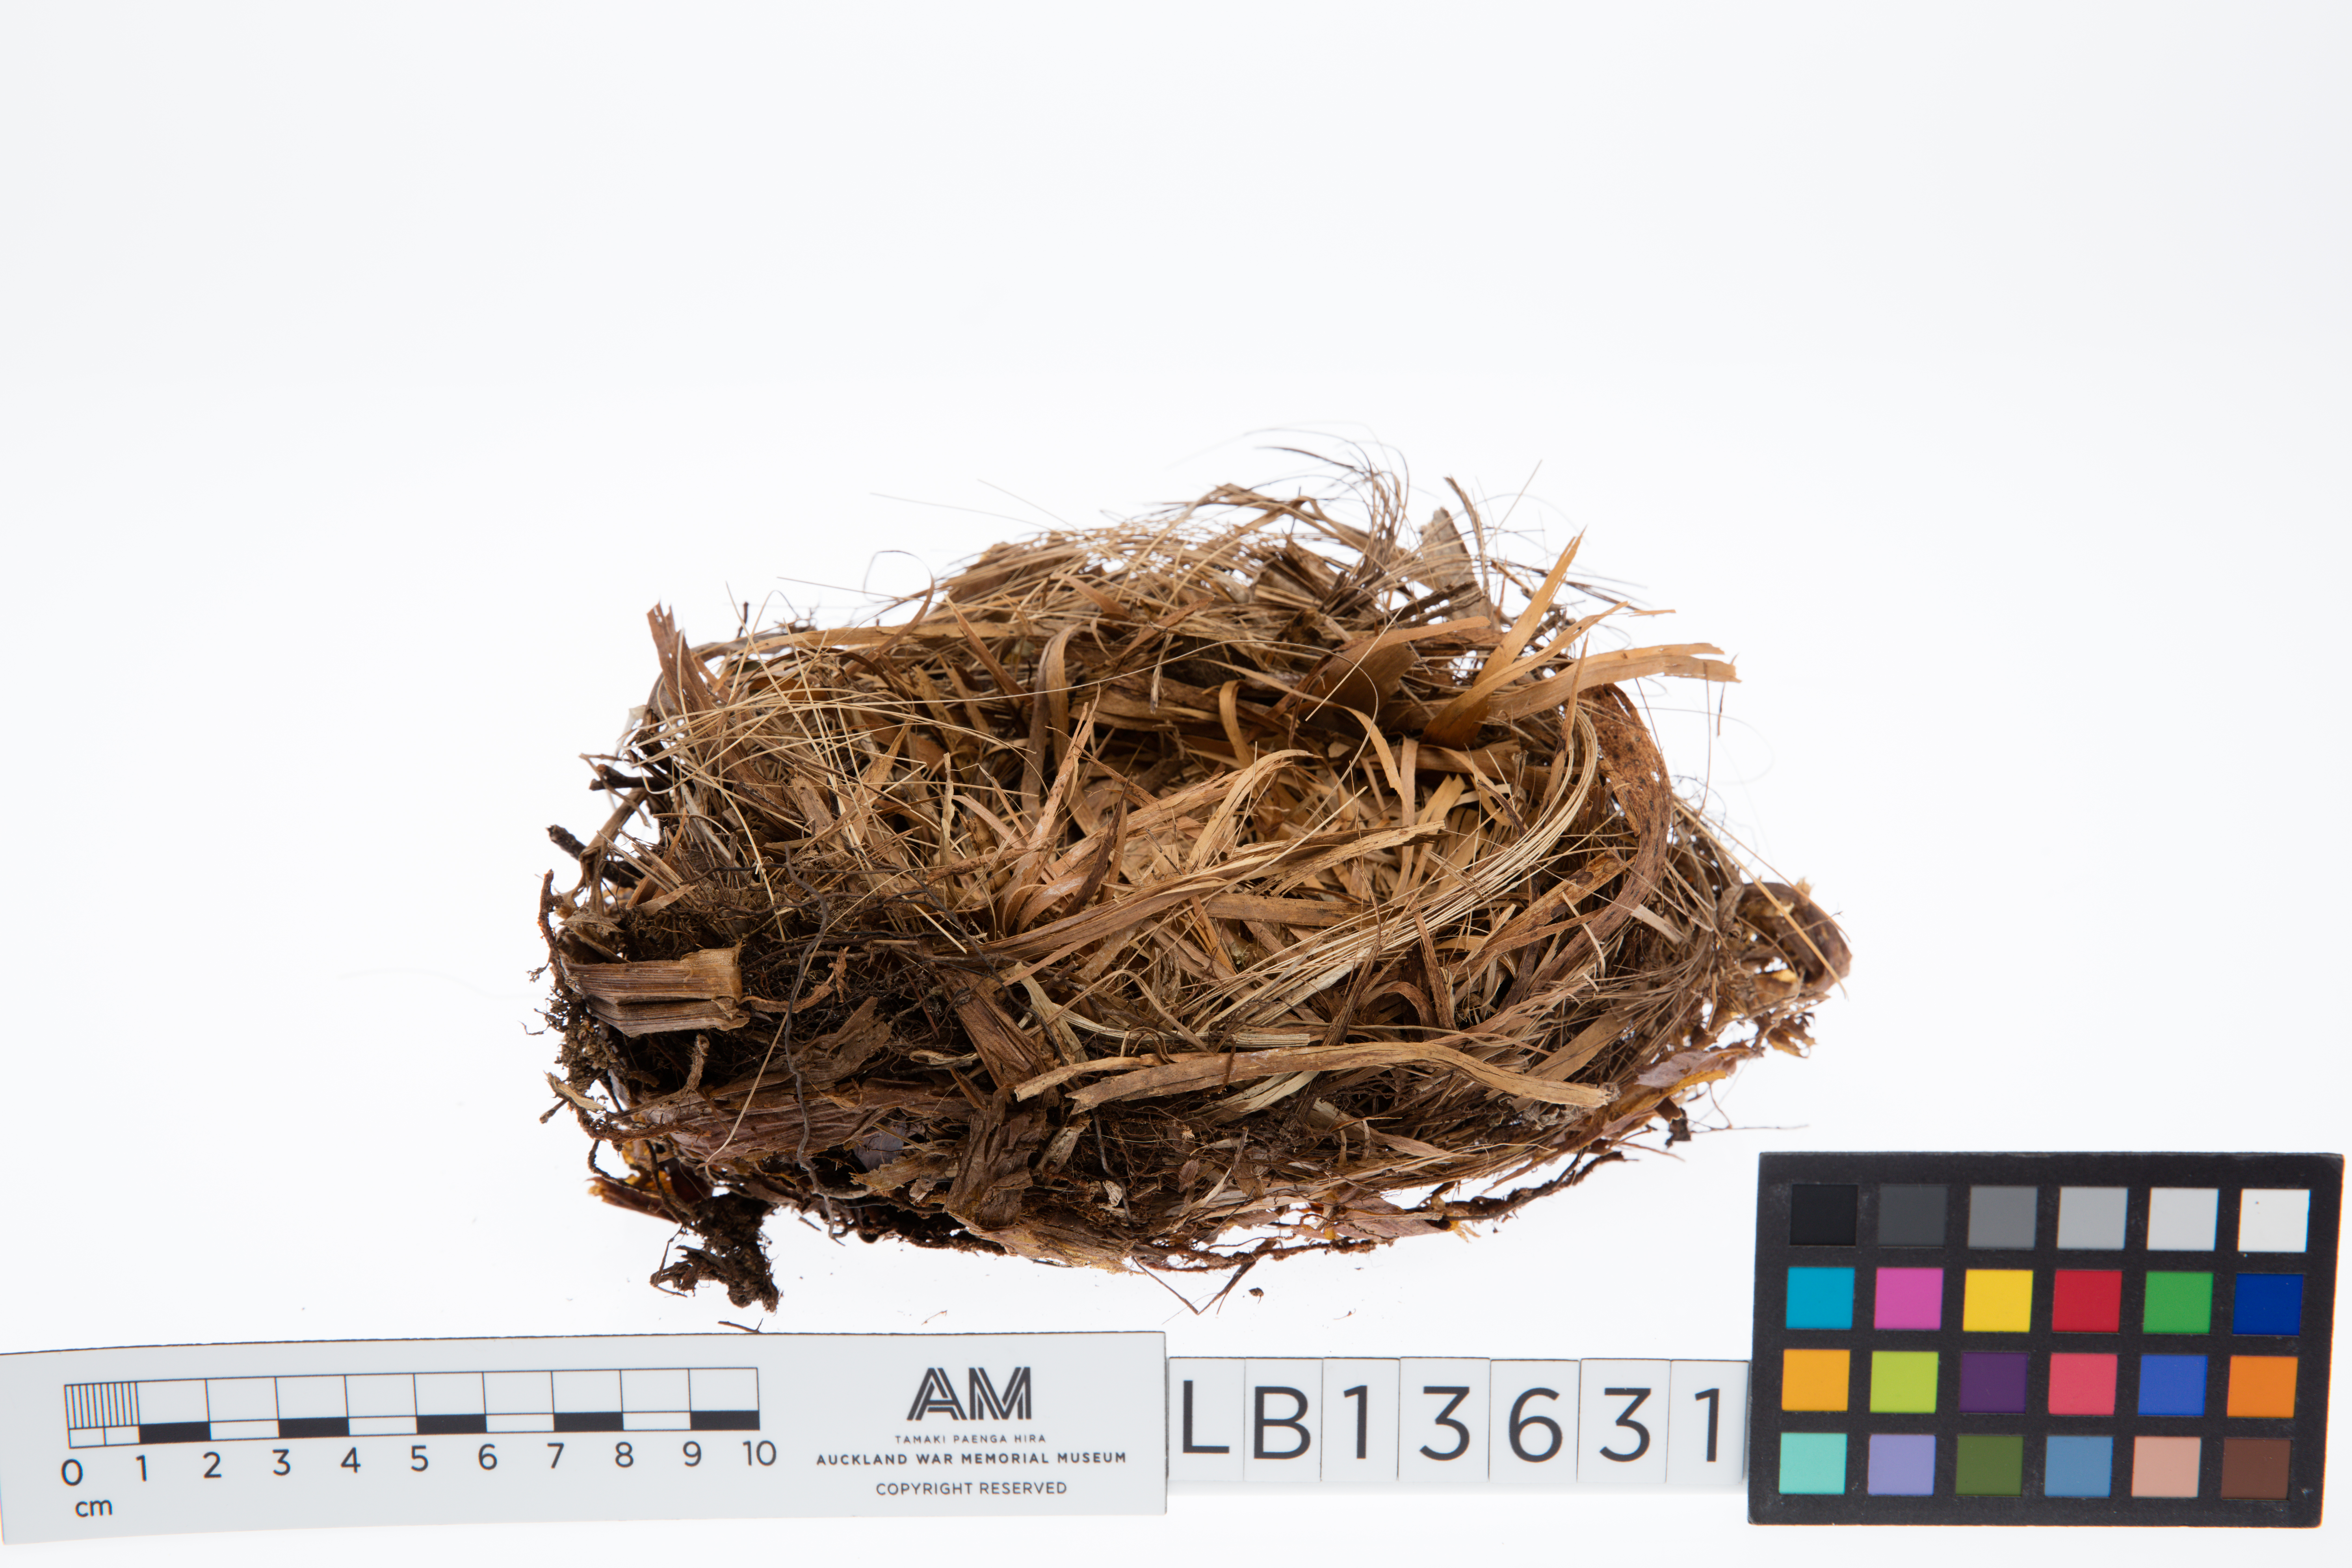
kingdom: Animalia
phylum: Chordata
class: Aves
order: Passeriformes
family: Callaeatidae
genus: Philesturnus
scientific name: Philesturnus carunculatus
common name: South island saddleback
